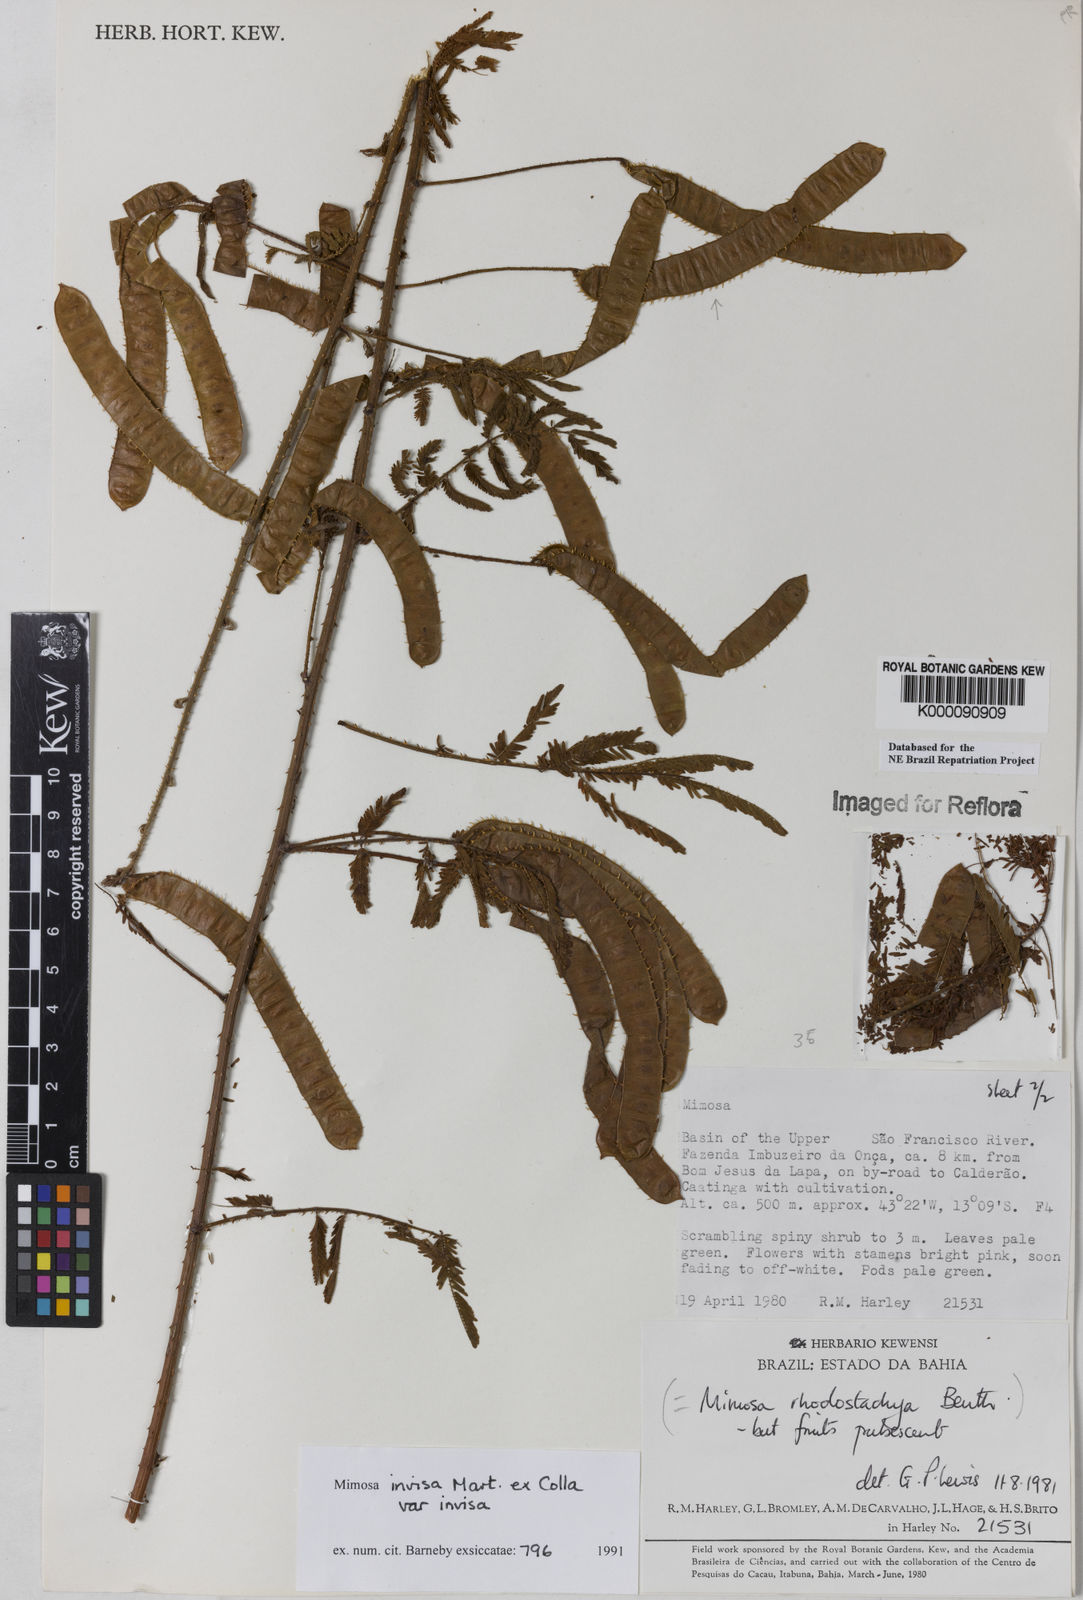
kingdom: Plantae
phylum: Tracheophyta
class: Magnoliopsida
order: Fabales
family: Fabaceae
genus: Mimosa
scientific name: Mimosa invisa
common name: Creeping sensitive-plant
